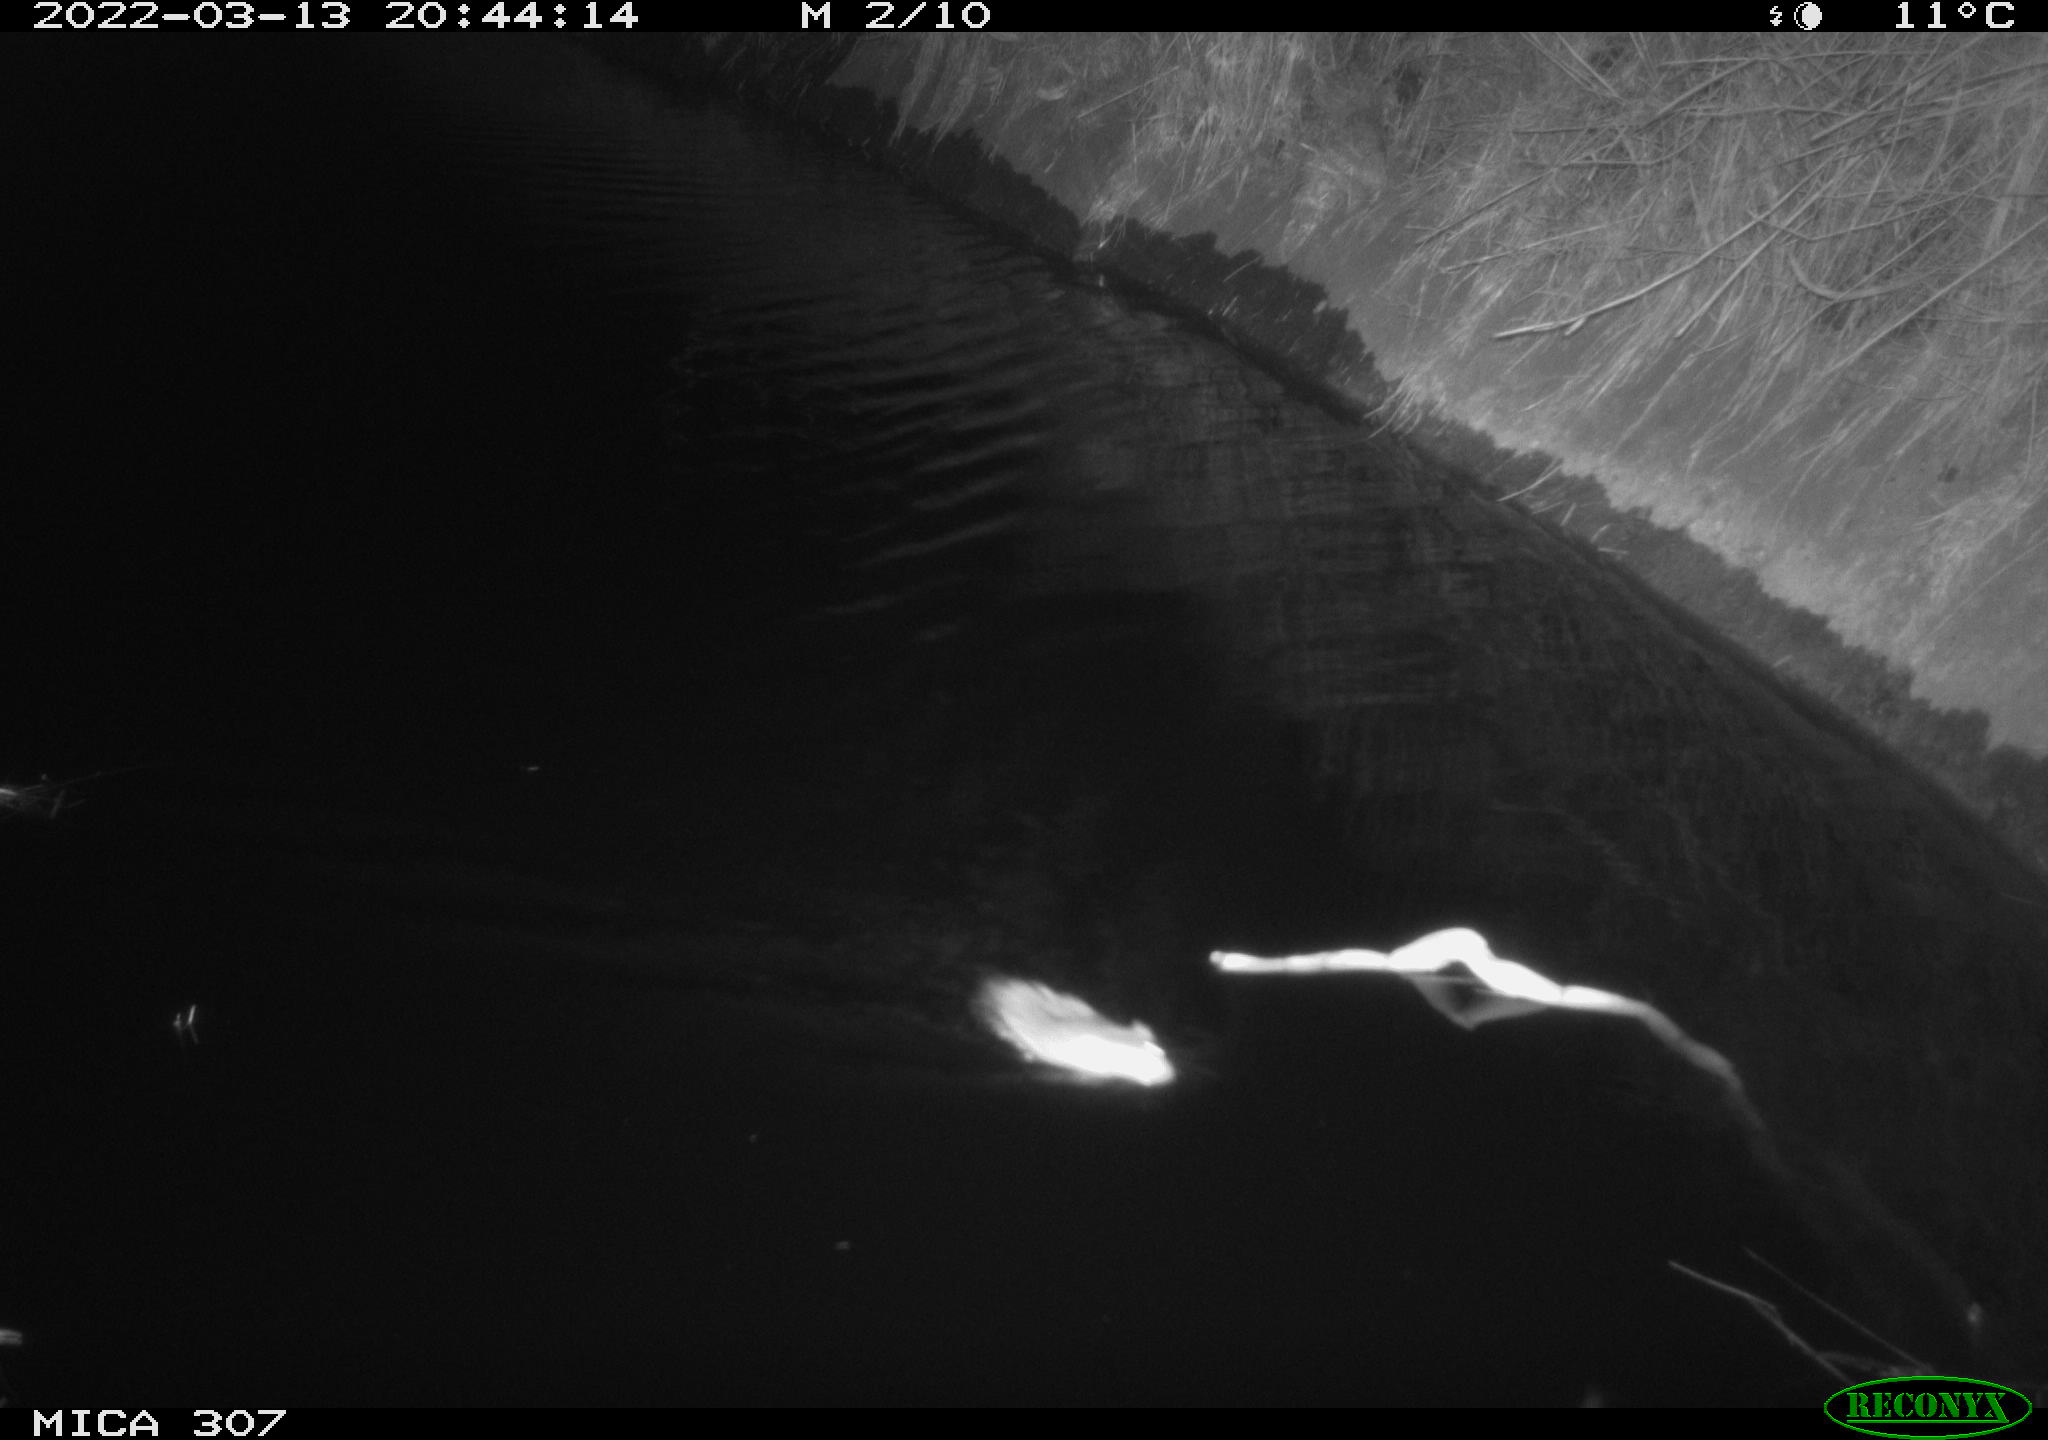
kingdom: Animalia
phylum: Chordata
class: Mammalia
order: Rodentia
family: Muridae
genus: Rattus
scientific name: Rattus norvegicus
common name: Brown rat
